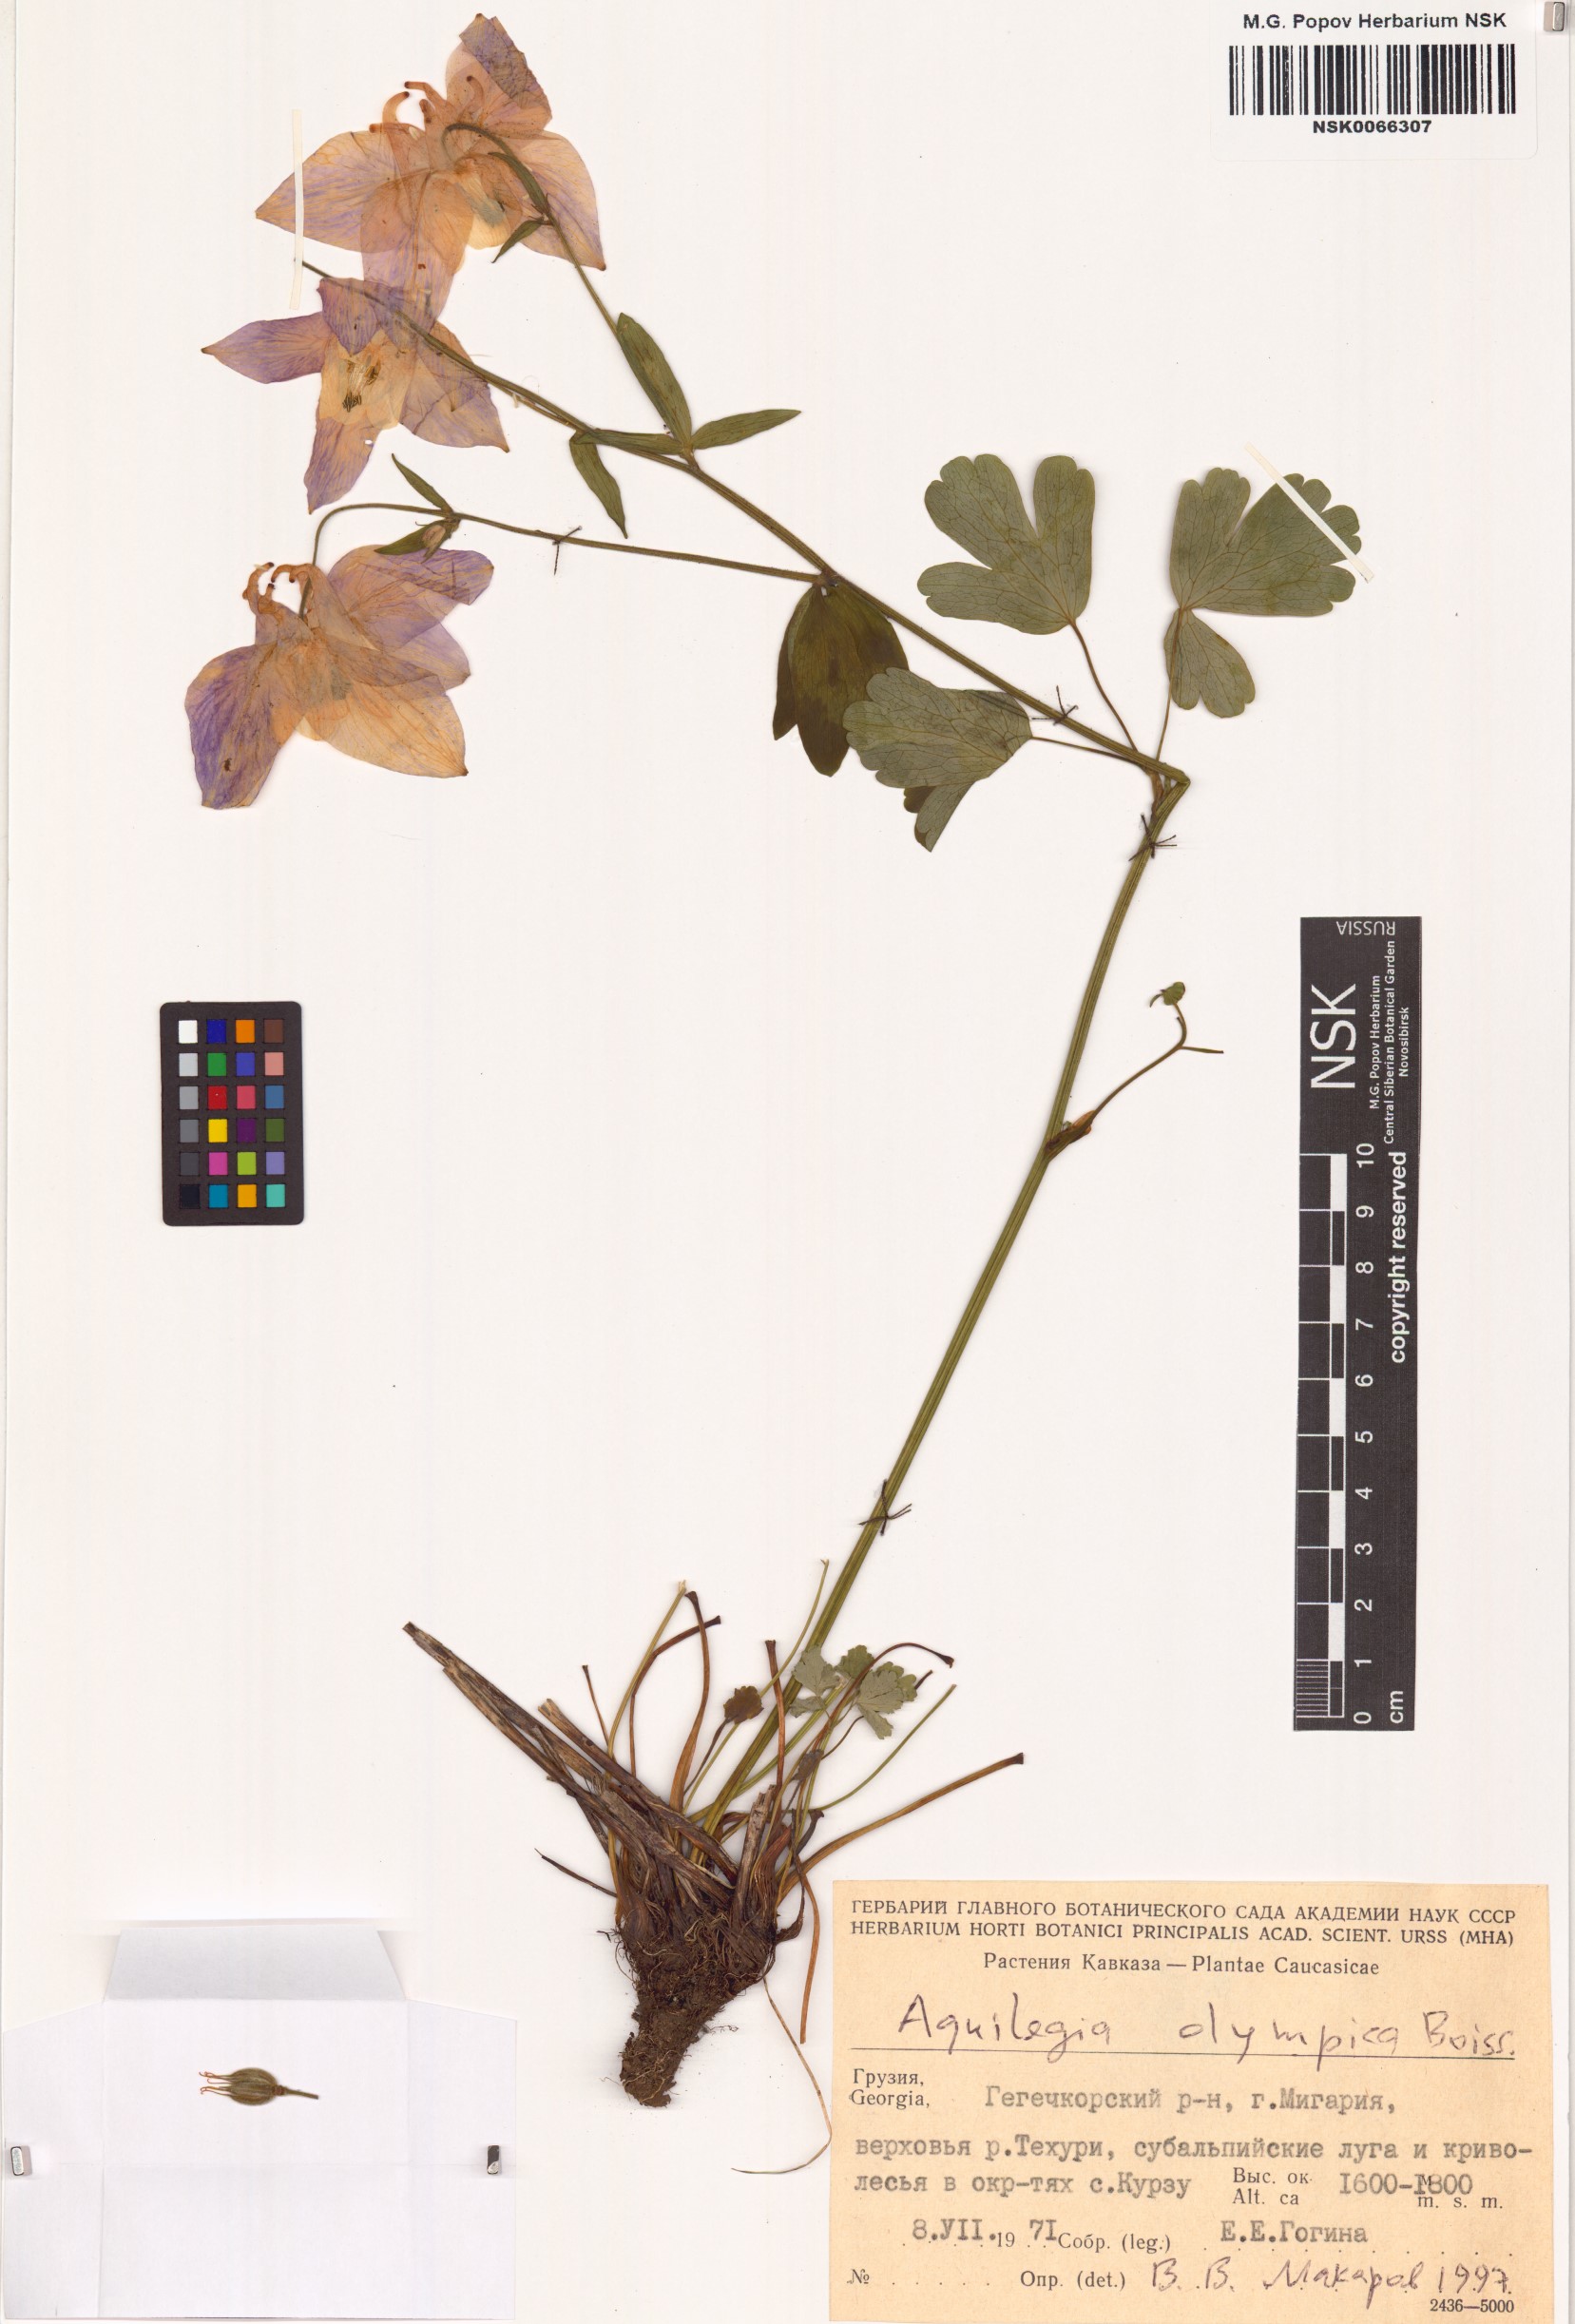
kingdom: Plantae
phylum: Tracheophyta
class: Magnoliopsida
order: Ranunculales
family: Ranunculaceae
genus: Aquilegia
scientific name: Aquilegia olympica
